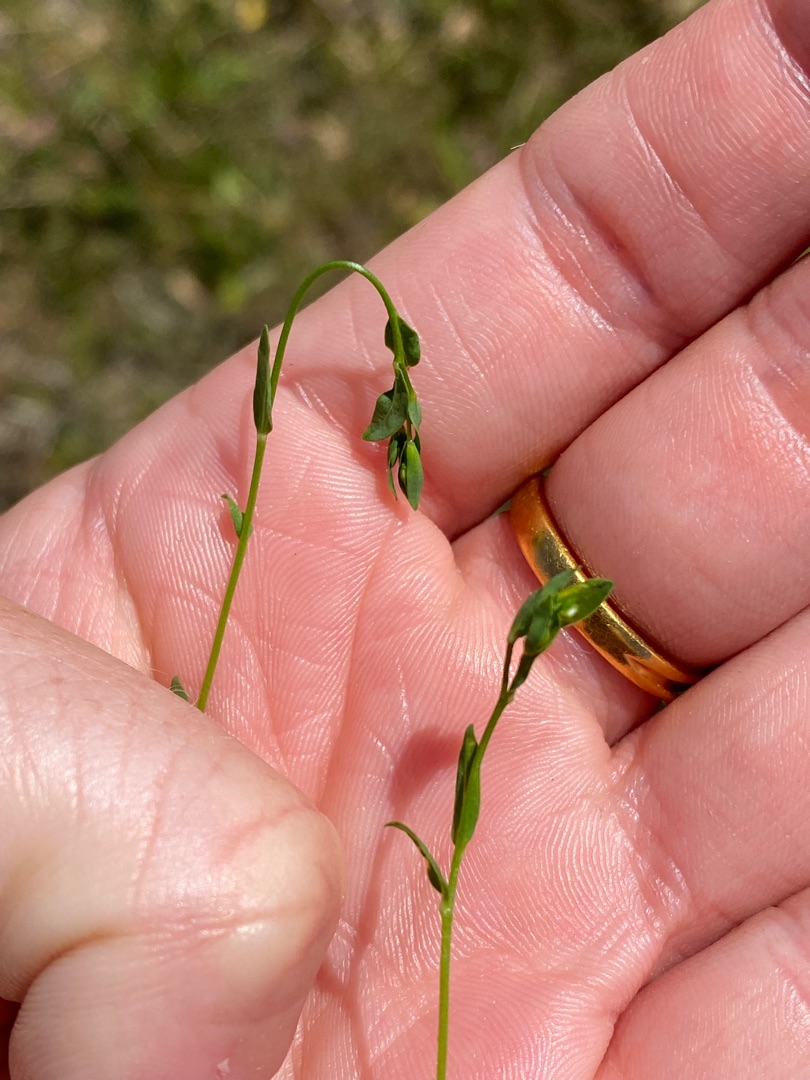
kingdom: Plantae
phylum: Tracheophyta
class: Magnoliopsida
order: Malpighiales
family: Linaceae
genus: Linum
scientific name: Linum catharticum
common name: Vild hør
